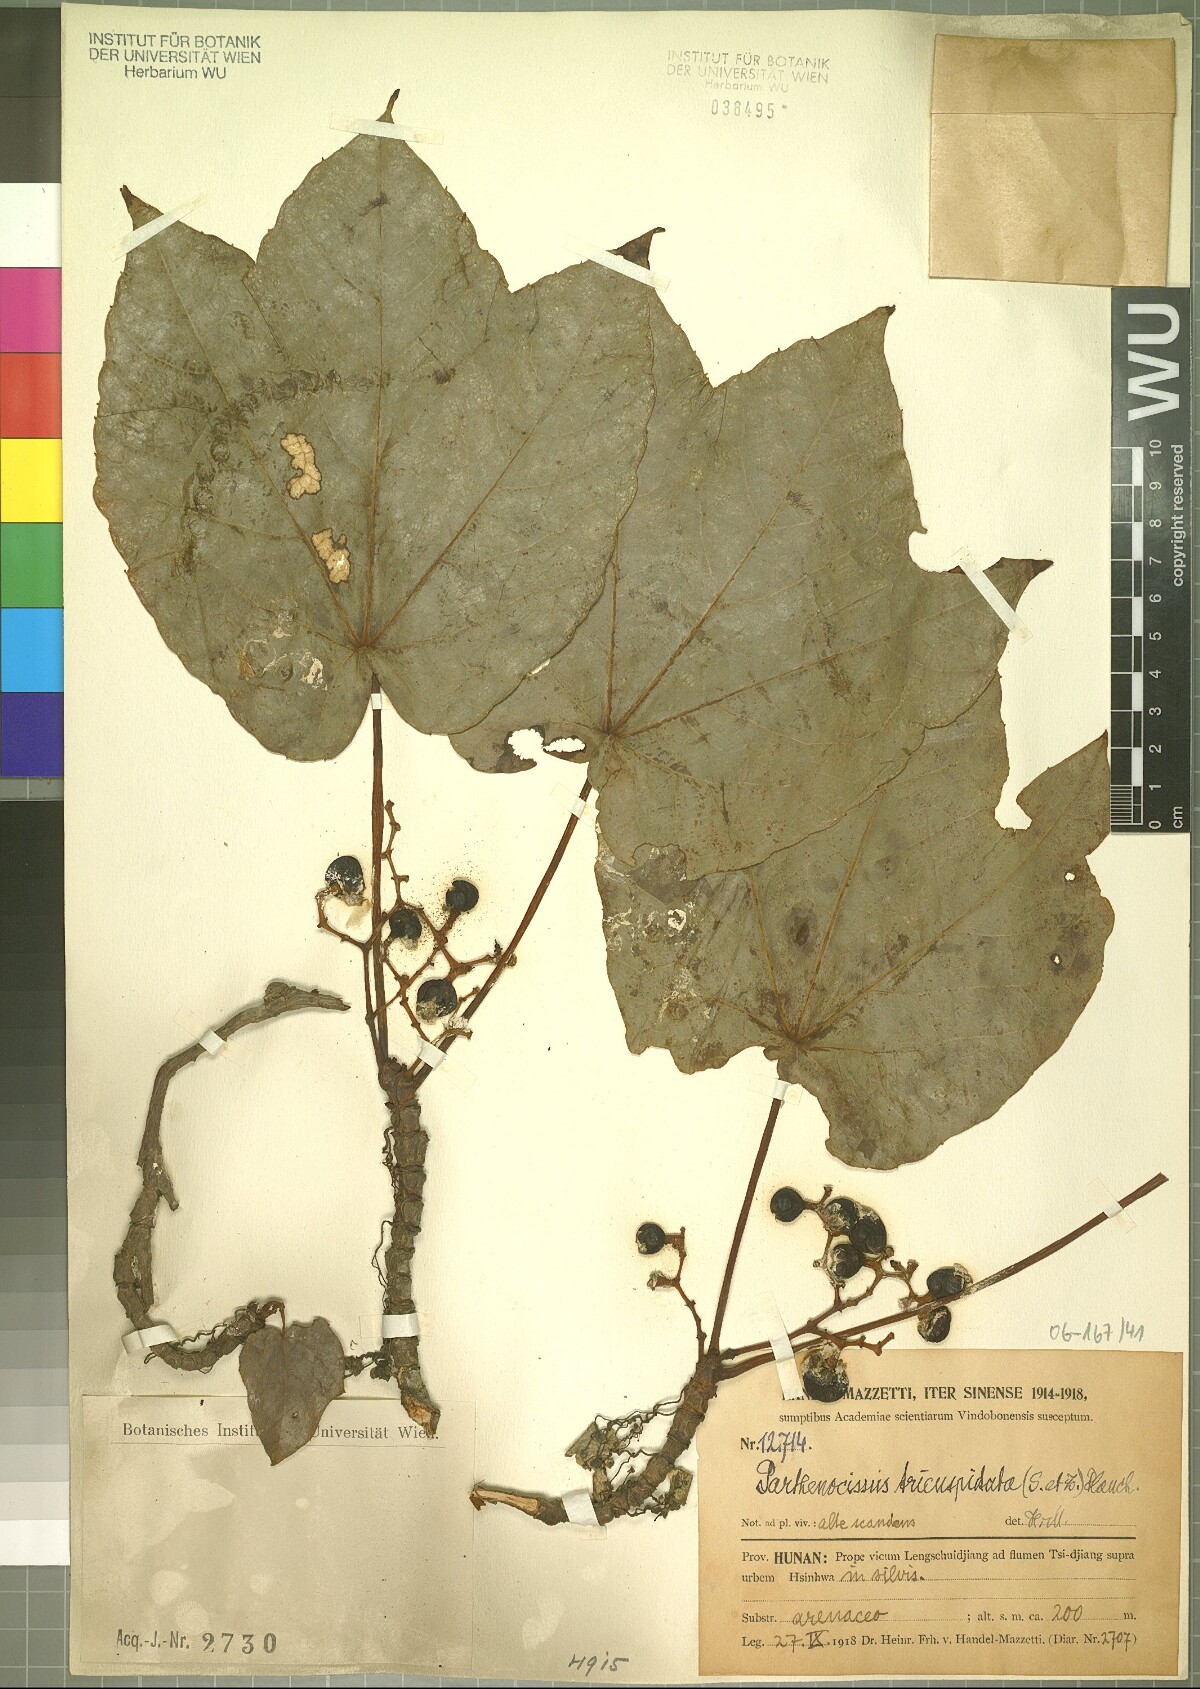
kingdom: Plantae
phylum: Tracheophyta
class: Magnoliopsida
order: Vitales
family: Vitaceae
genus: Parthenocissus
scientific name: Parthenocissus tricuspidata
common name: Boston ivy
